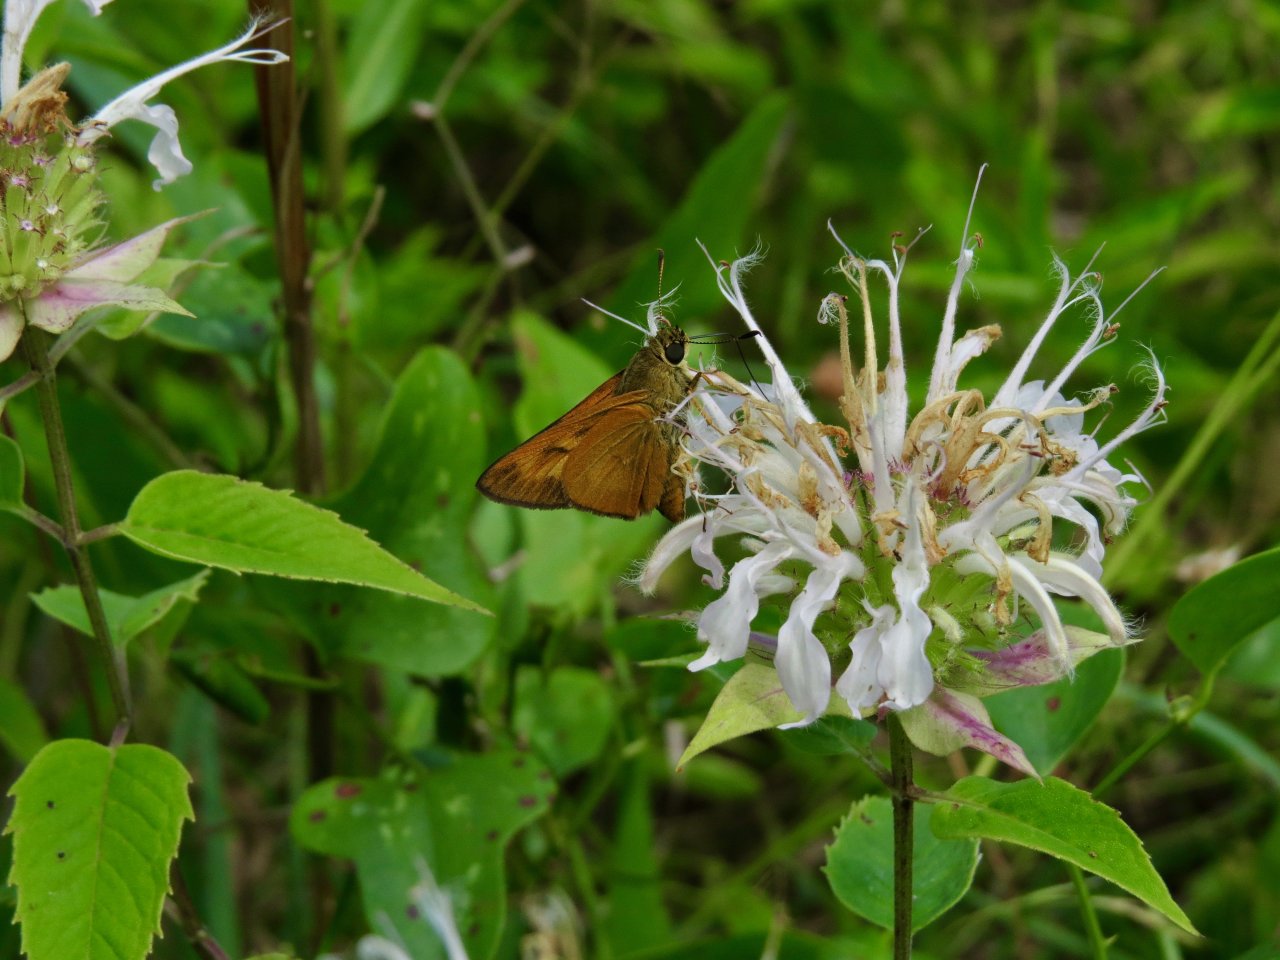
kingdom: Animalia
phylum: Arthropoda
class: Insecta
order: Lepidoptera
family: Hesperiidae
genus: Problema
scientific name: Problema byssus
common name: Byssus Skipper
